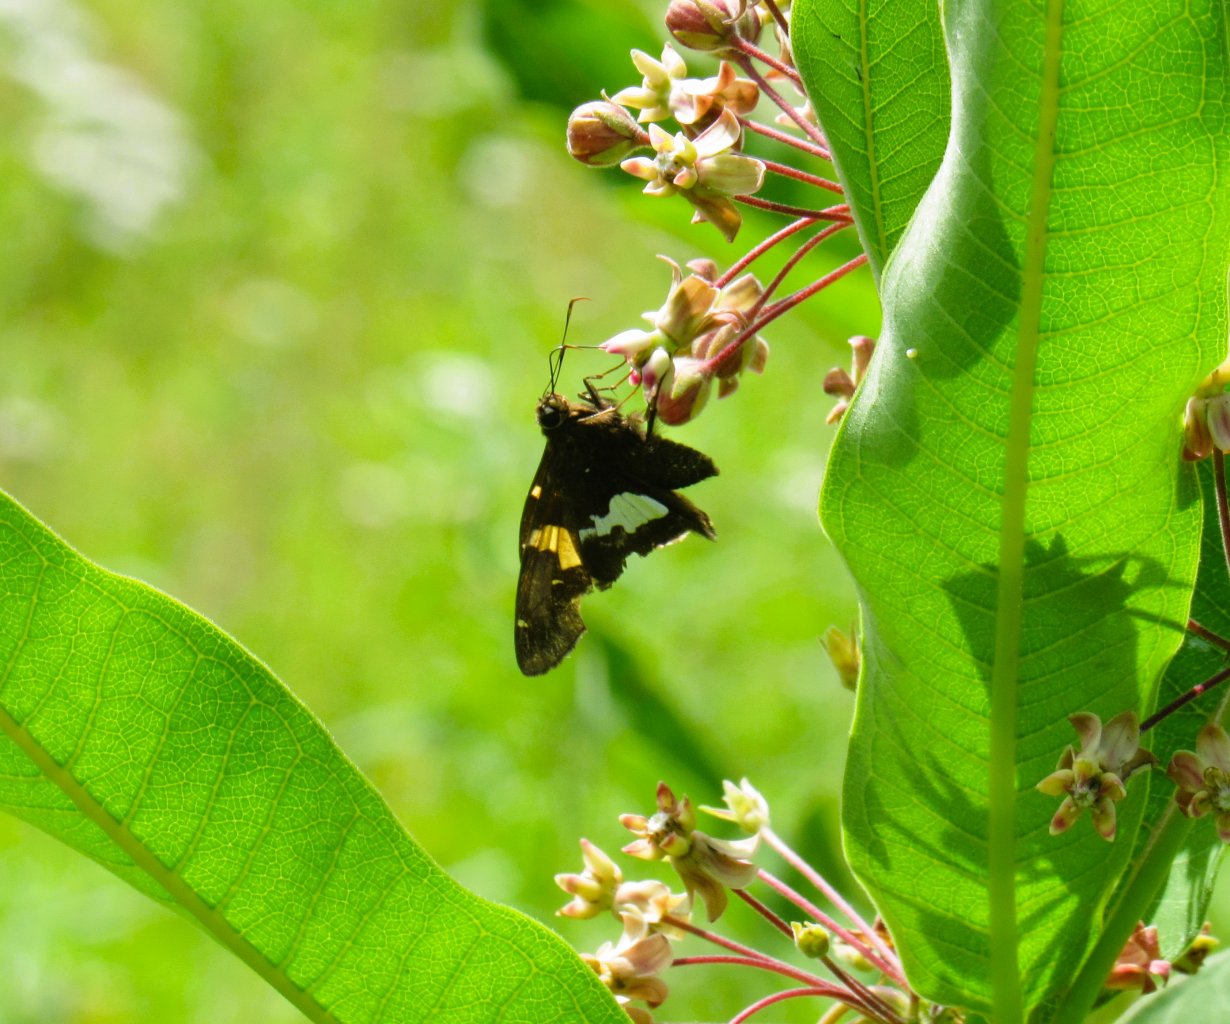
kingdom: Animalia
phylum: Arthropoda
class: Insecta
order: Lepidoptera
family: Hesperiidae
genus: Epargyreus
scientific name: Epargyreus clarus
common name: Silver-spotted Skipper
